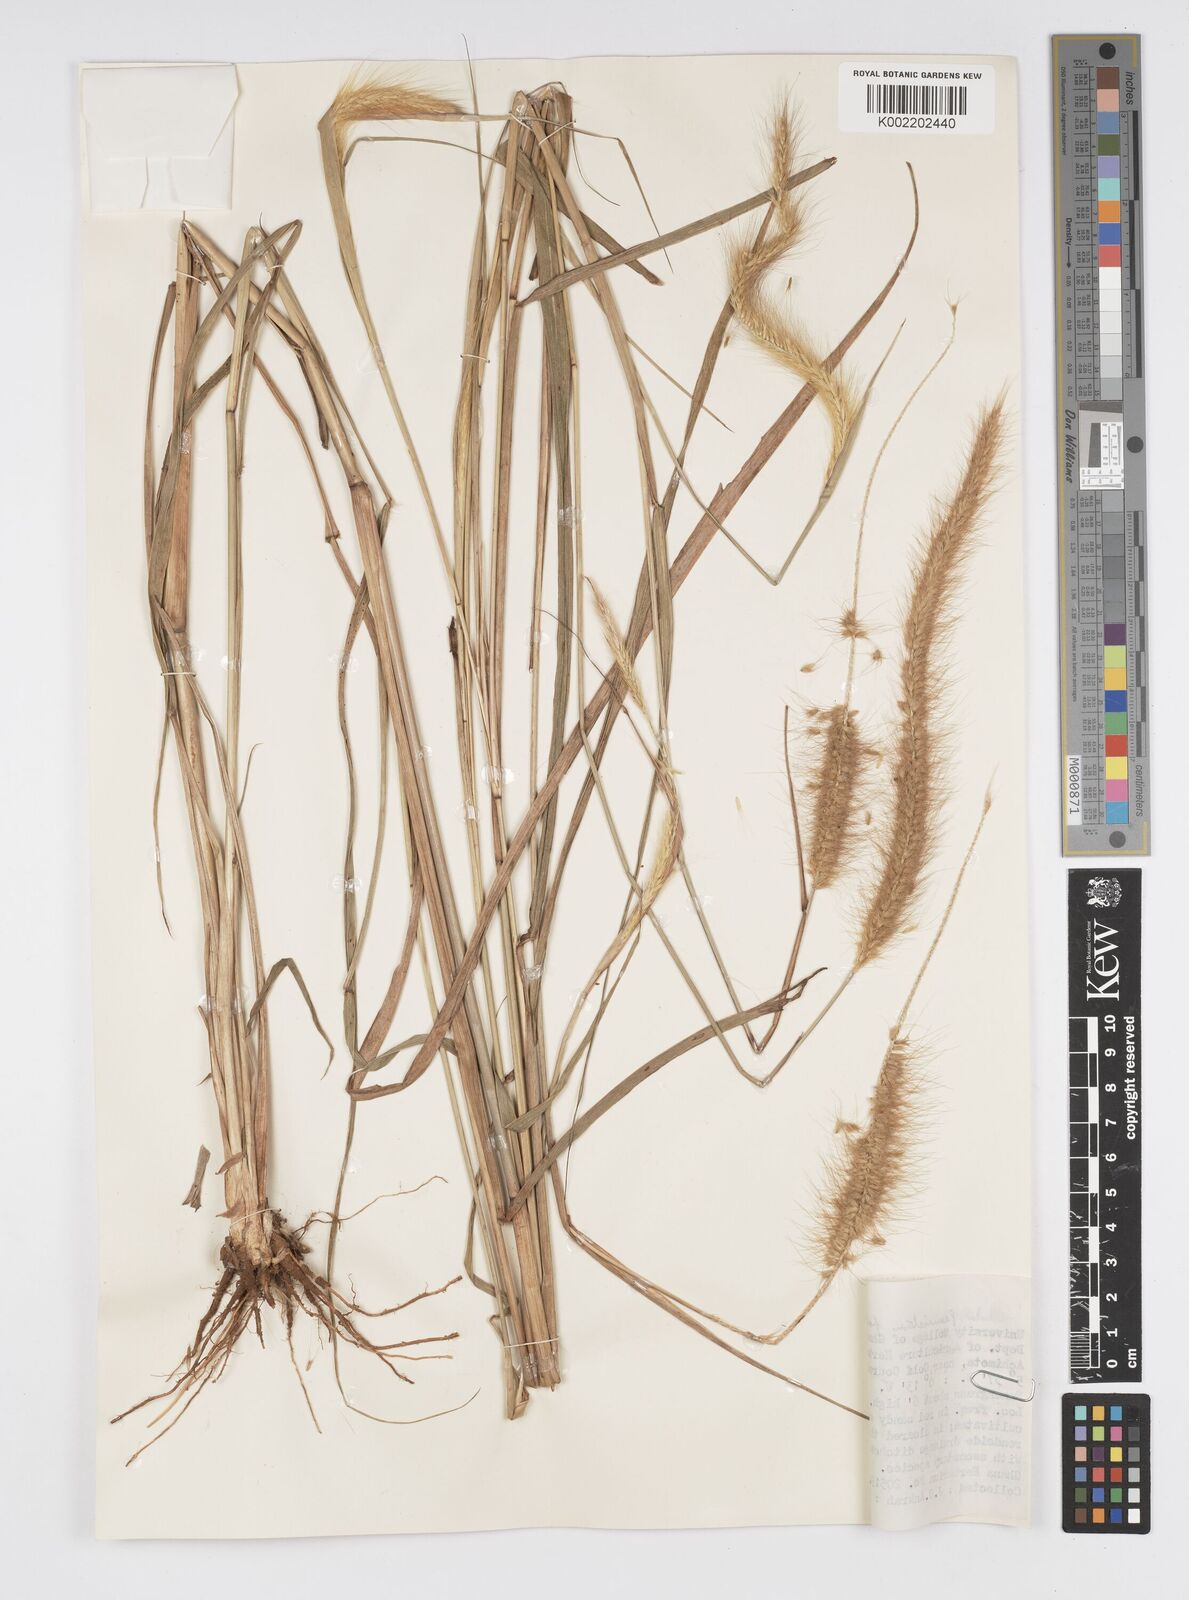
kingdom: Plantae
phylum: Tracheophyta
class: Liliopsida
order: Poales
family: Poaceae
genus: Setaria
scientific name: Setaria parviflora
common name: Knotroot bristle-grass
